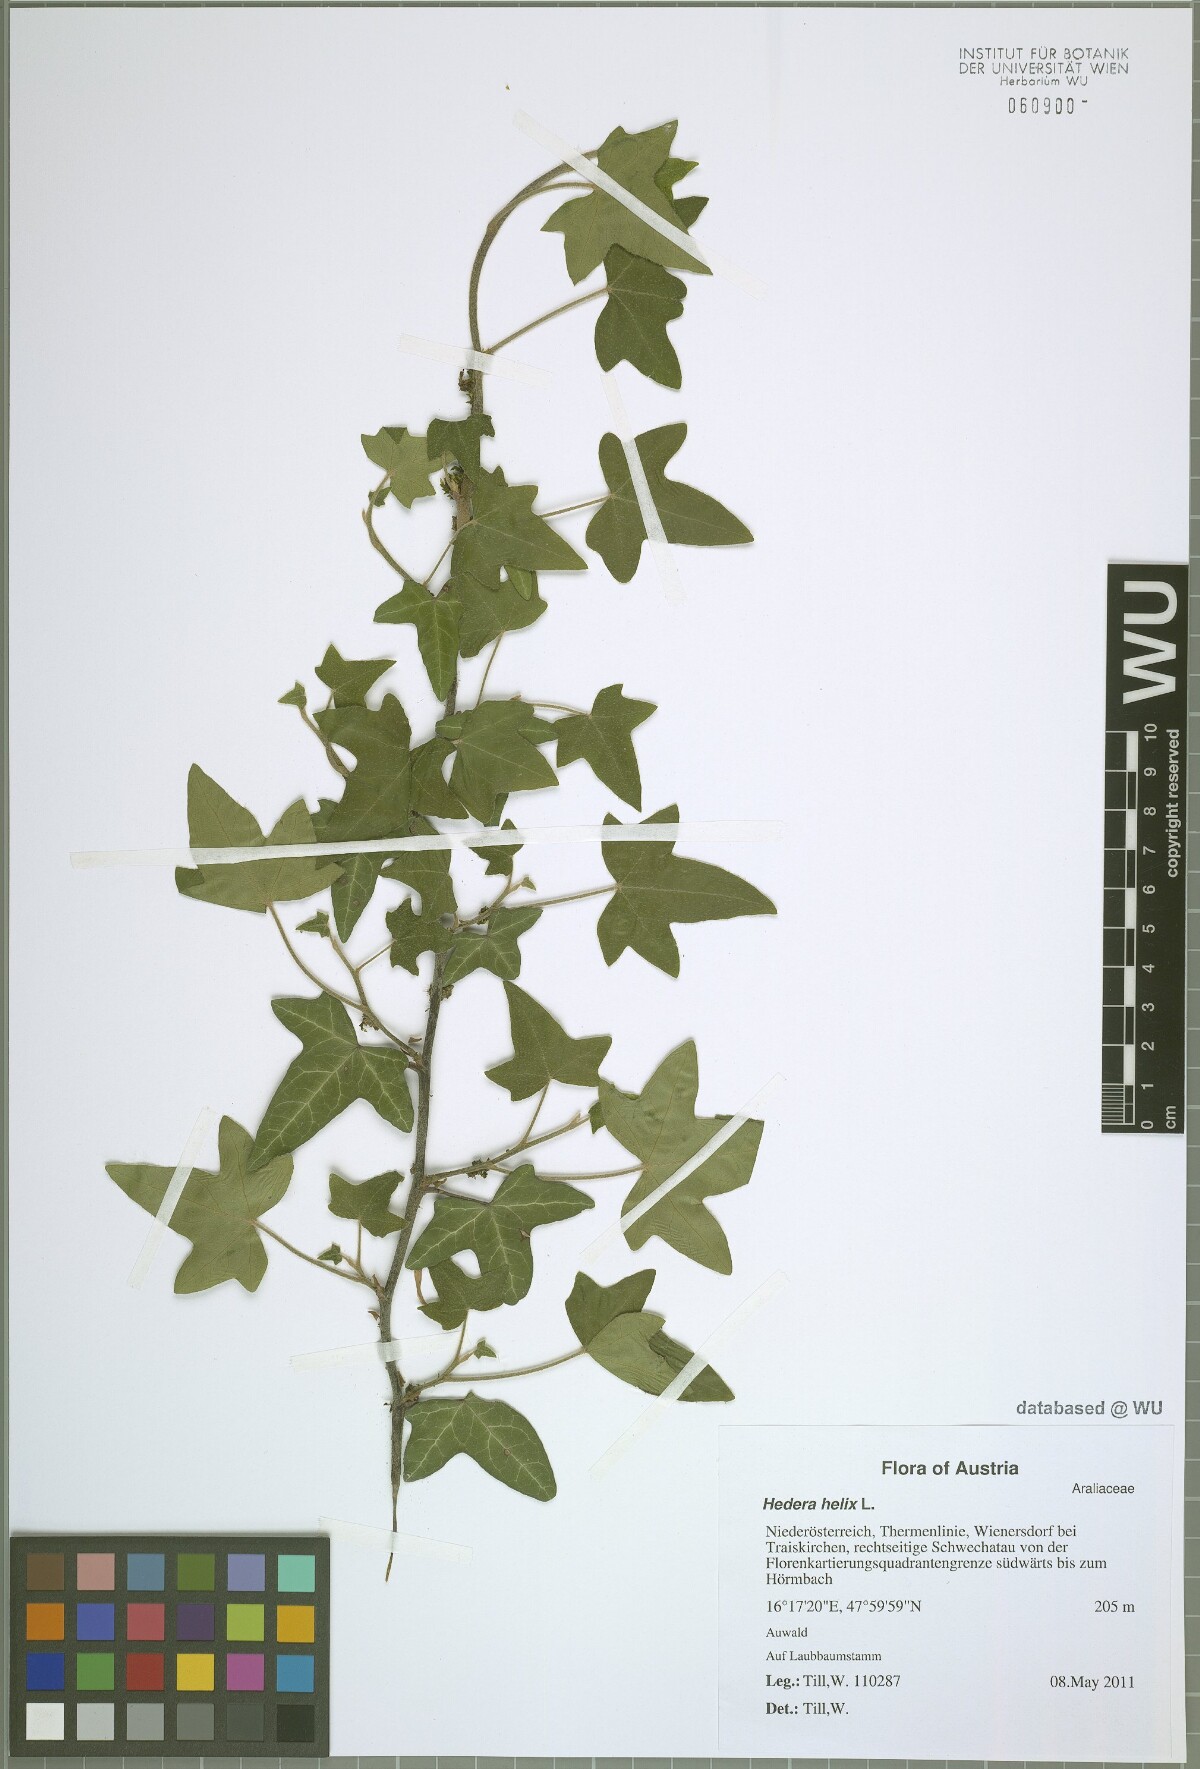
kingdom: Plantae
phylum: Tracheophyta
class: Magnoliopsida
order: Apiales
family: Araliaceae
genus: Hedera
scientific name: Hedera helix
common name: Ivy
